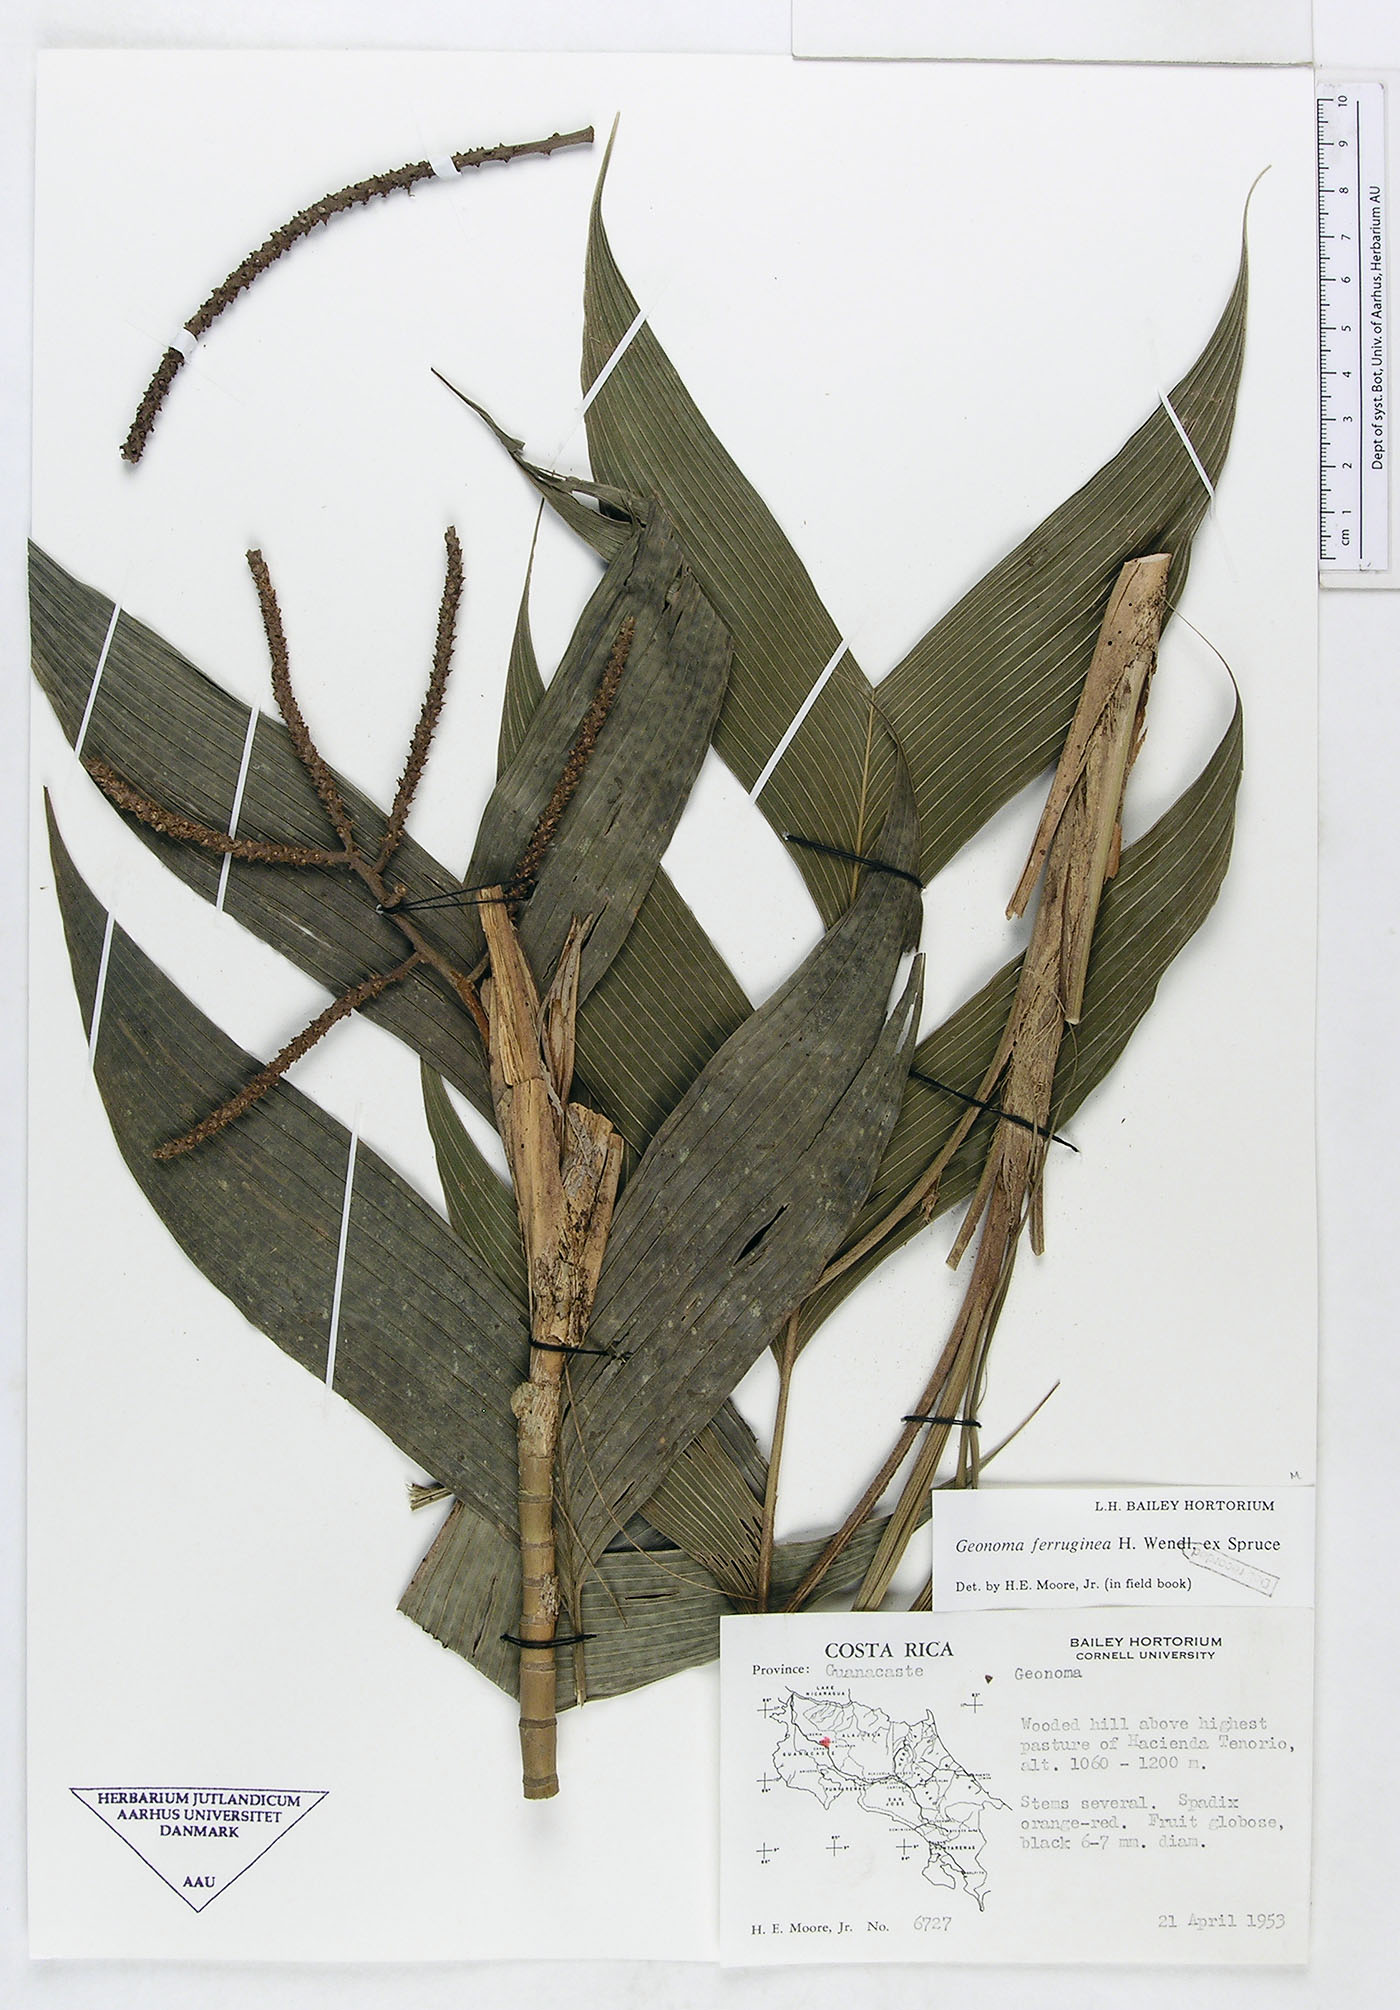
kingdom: Plantae
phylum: Tracheophyta
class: Liliopsida
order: Arecales
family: Arecaceae
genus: Geonoma
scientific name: Geonoma ferruginea
